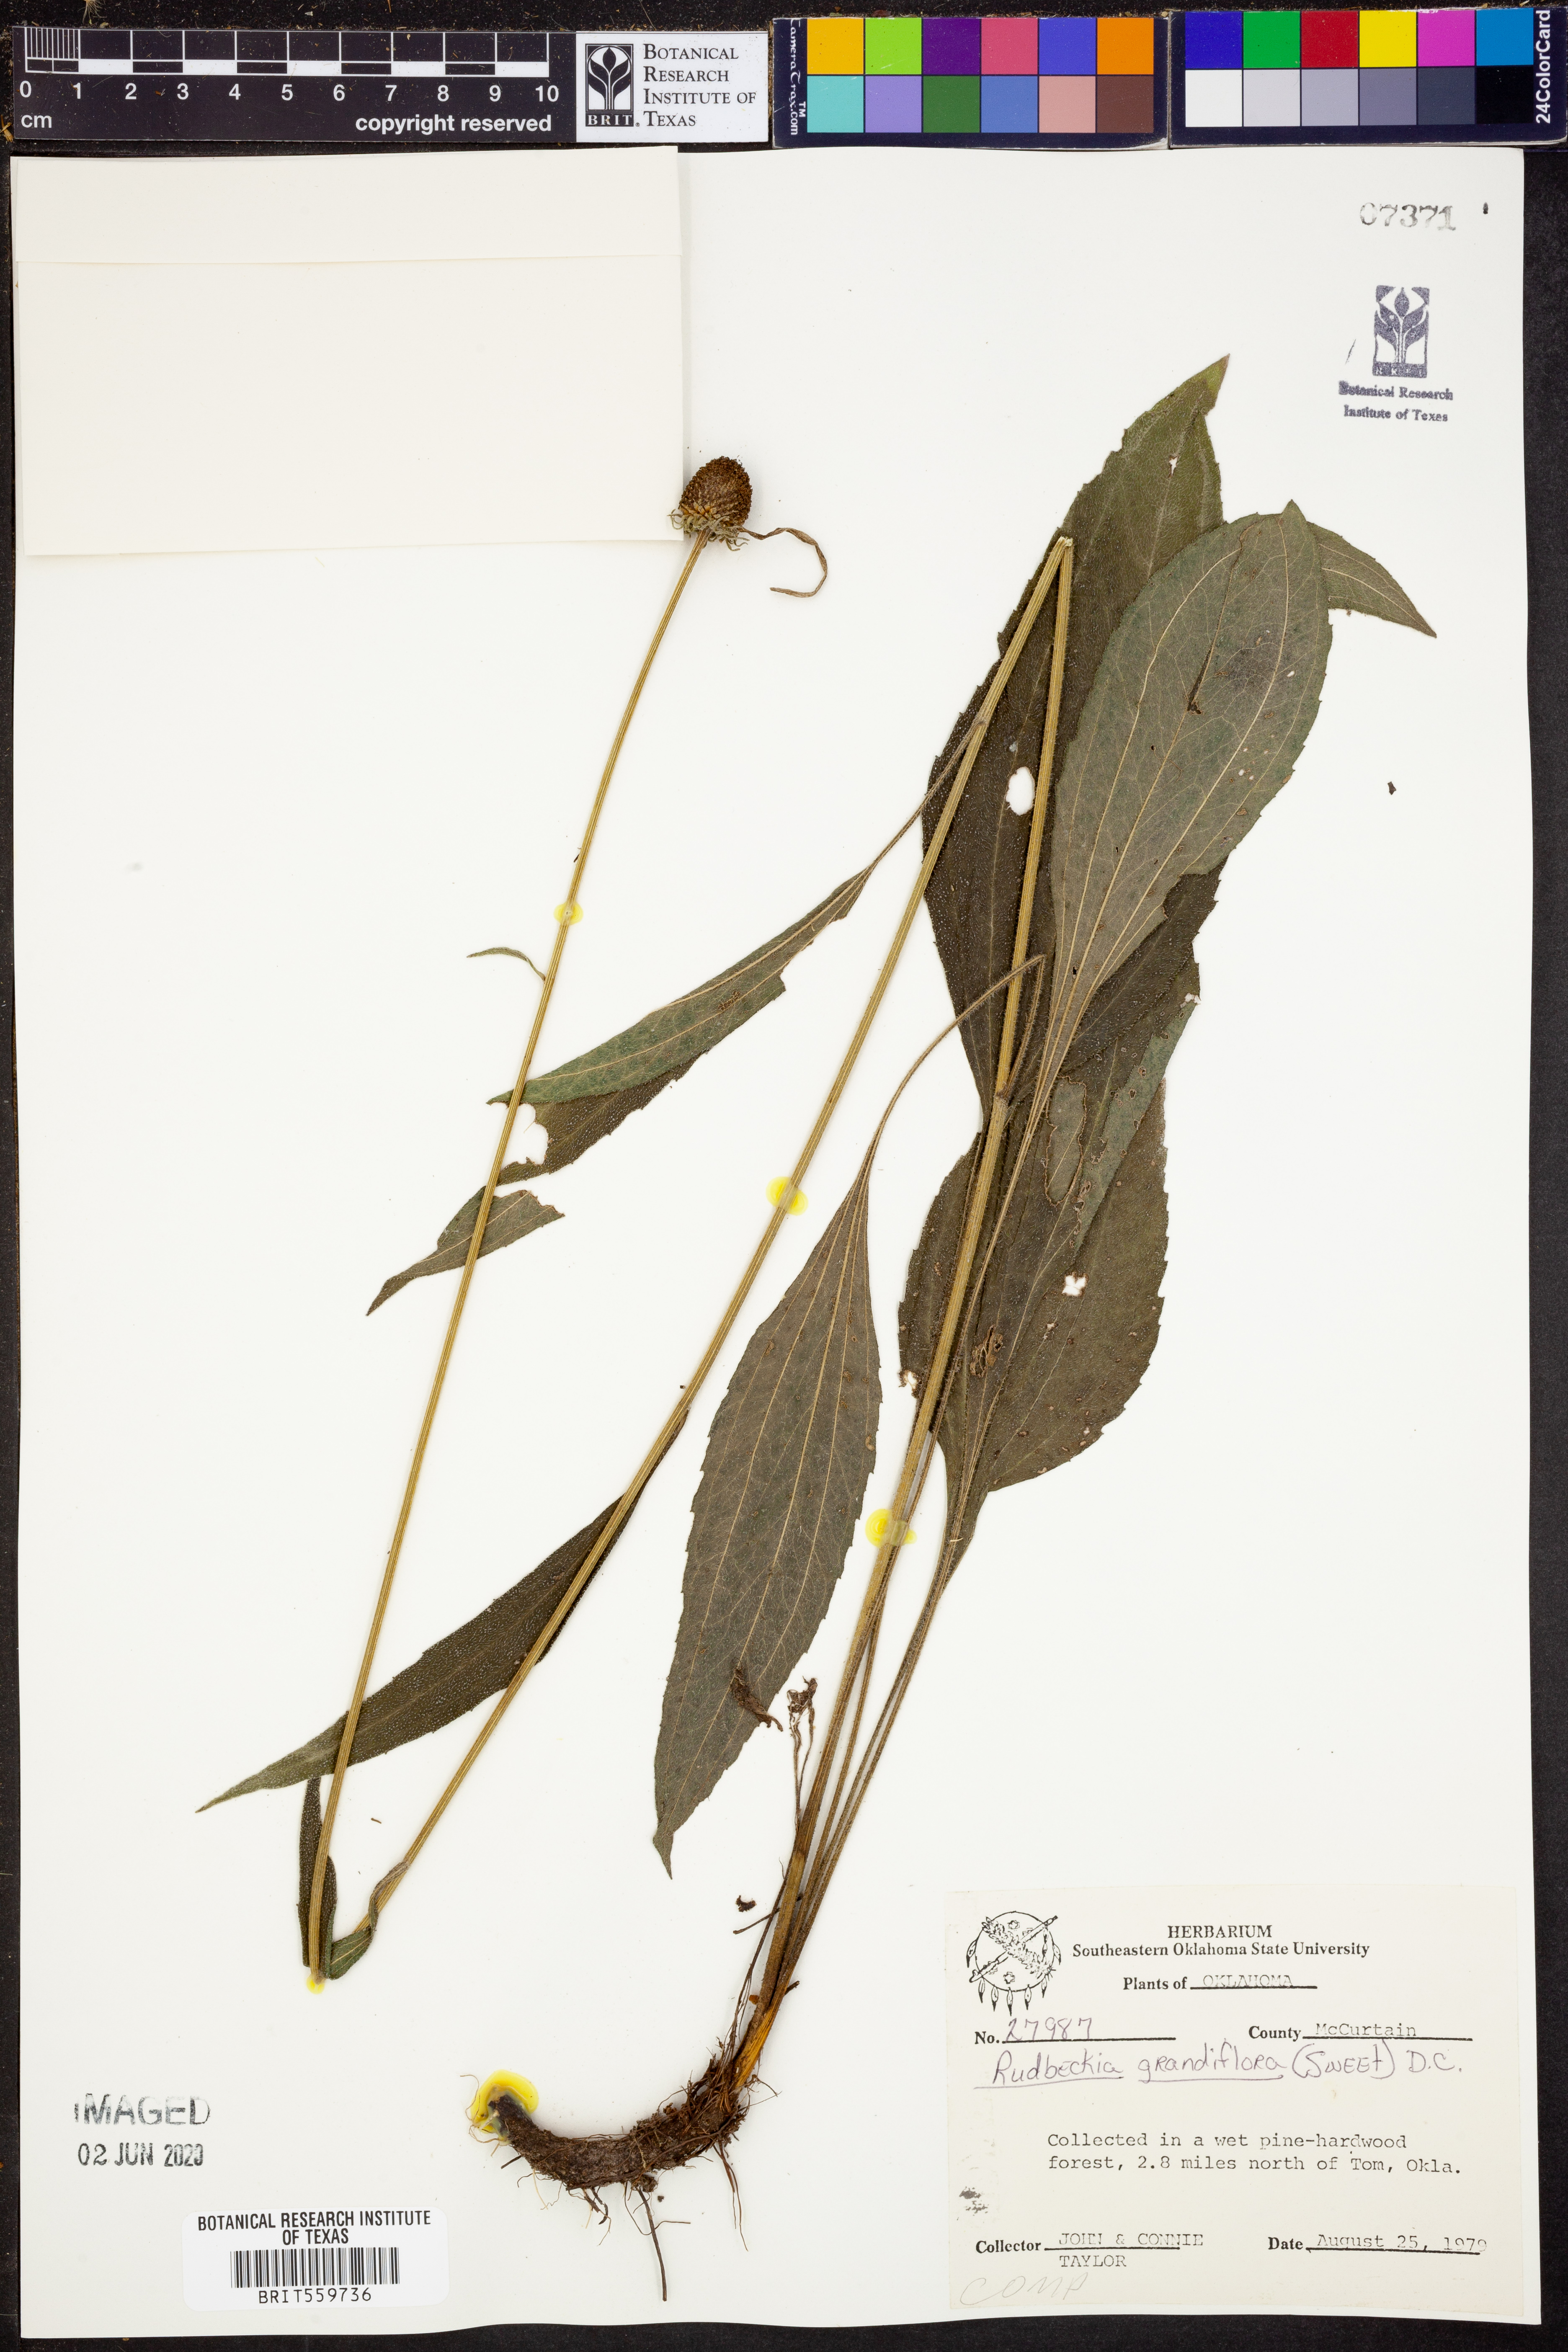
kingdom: Plantae
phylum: Tracheophyta
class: Magnoliopsida
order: Asterales
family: Asteraceae
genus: Rudbeckia
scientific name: Rudbeckia grandiflora
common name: Large-flowered coneflower
